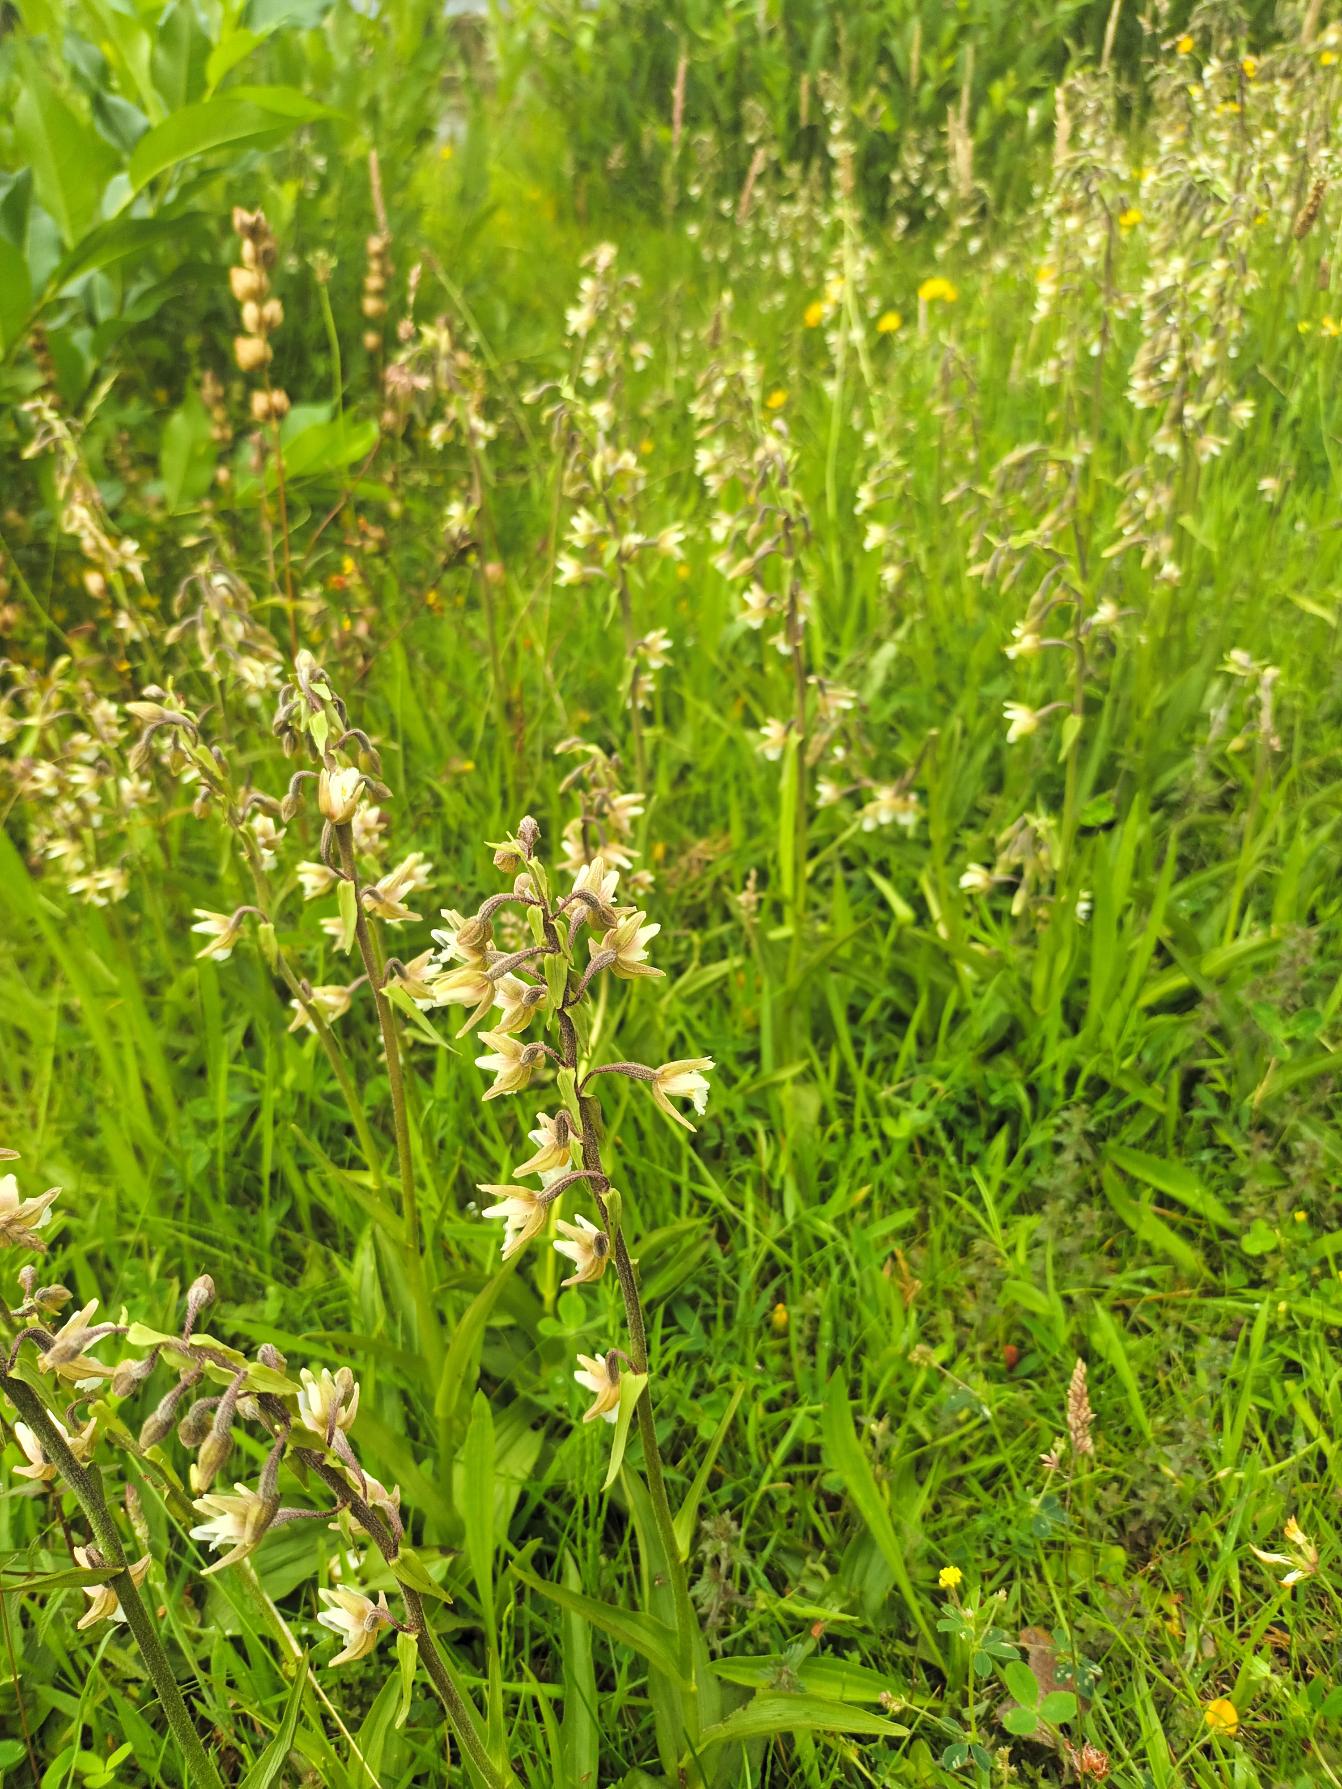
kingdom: Plantae
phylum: Tracheophyta
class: Liliopsida
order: Asparagales
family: Orchidaceae
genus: Epipactis
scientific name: Epipactis palustris
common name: Sump-hullæbe
